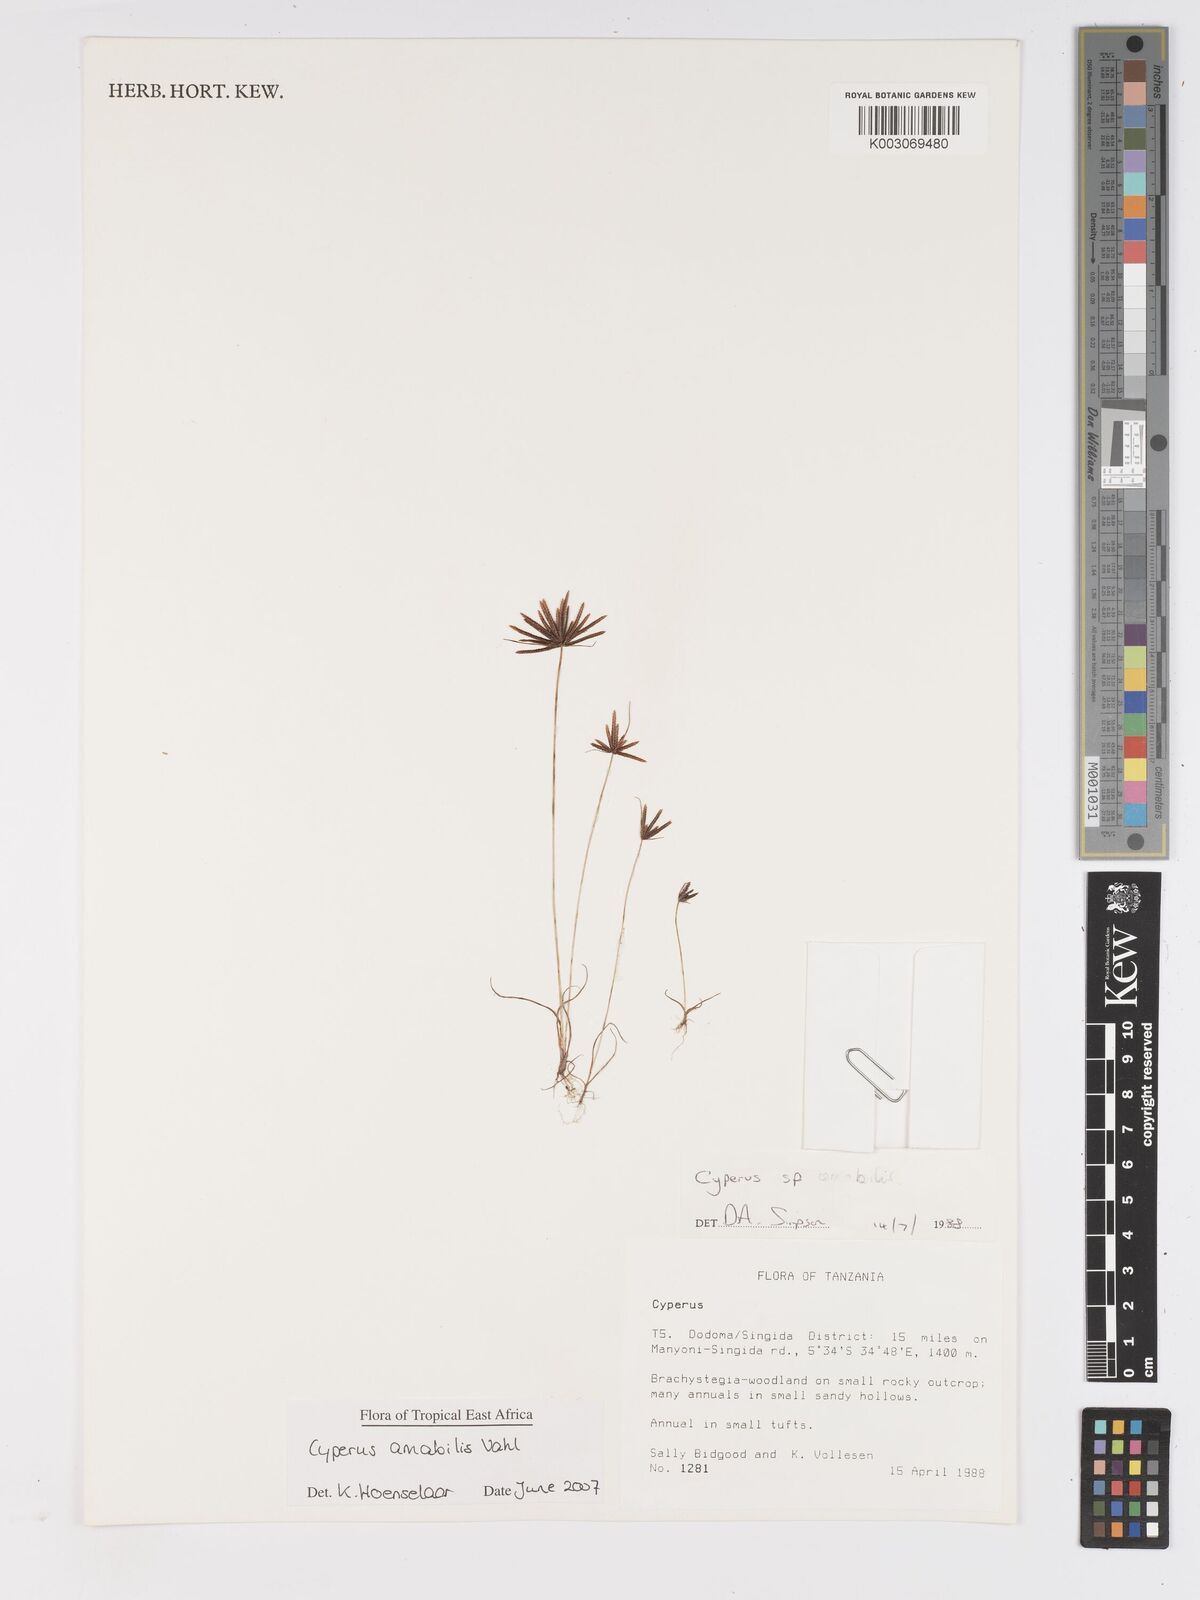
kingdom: Plantae
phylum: Tracheophyta
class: Liliopsida
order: Poales
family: Cyperaceae
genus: Cyperus
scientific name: Cyperus amabilis
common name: Foothill flat sedge
